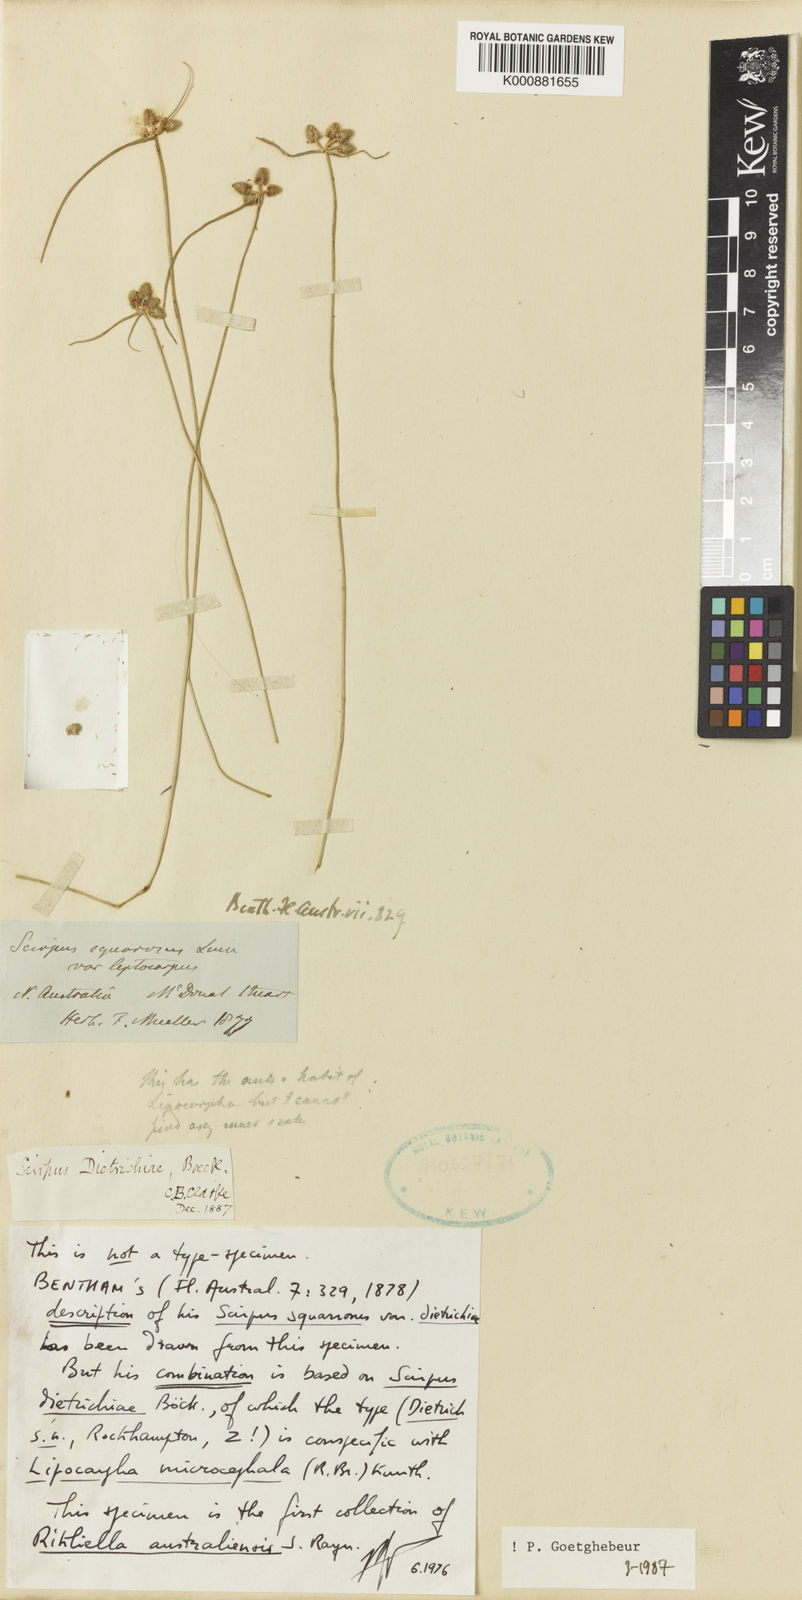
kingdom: Plantae
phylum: Tracheophyta
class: Liliopsida
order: Poales
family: Cyperaceae
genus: Cyperus
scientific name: Cyperus leptocarpus
